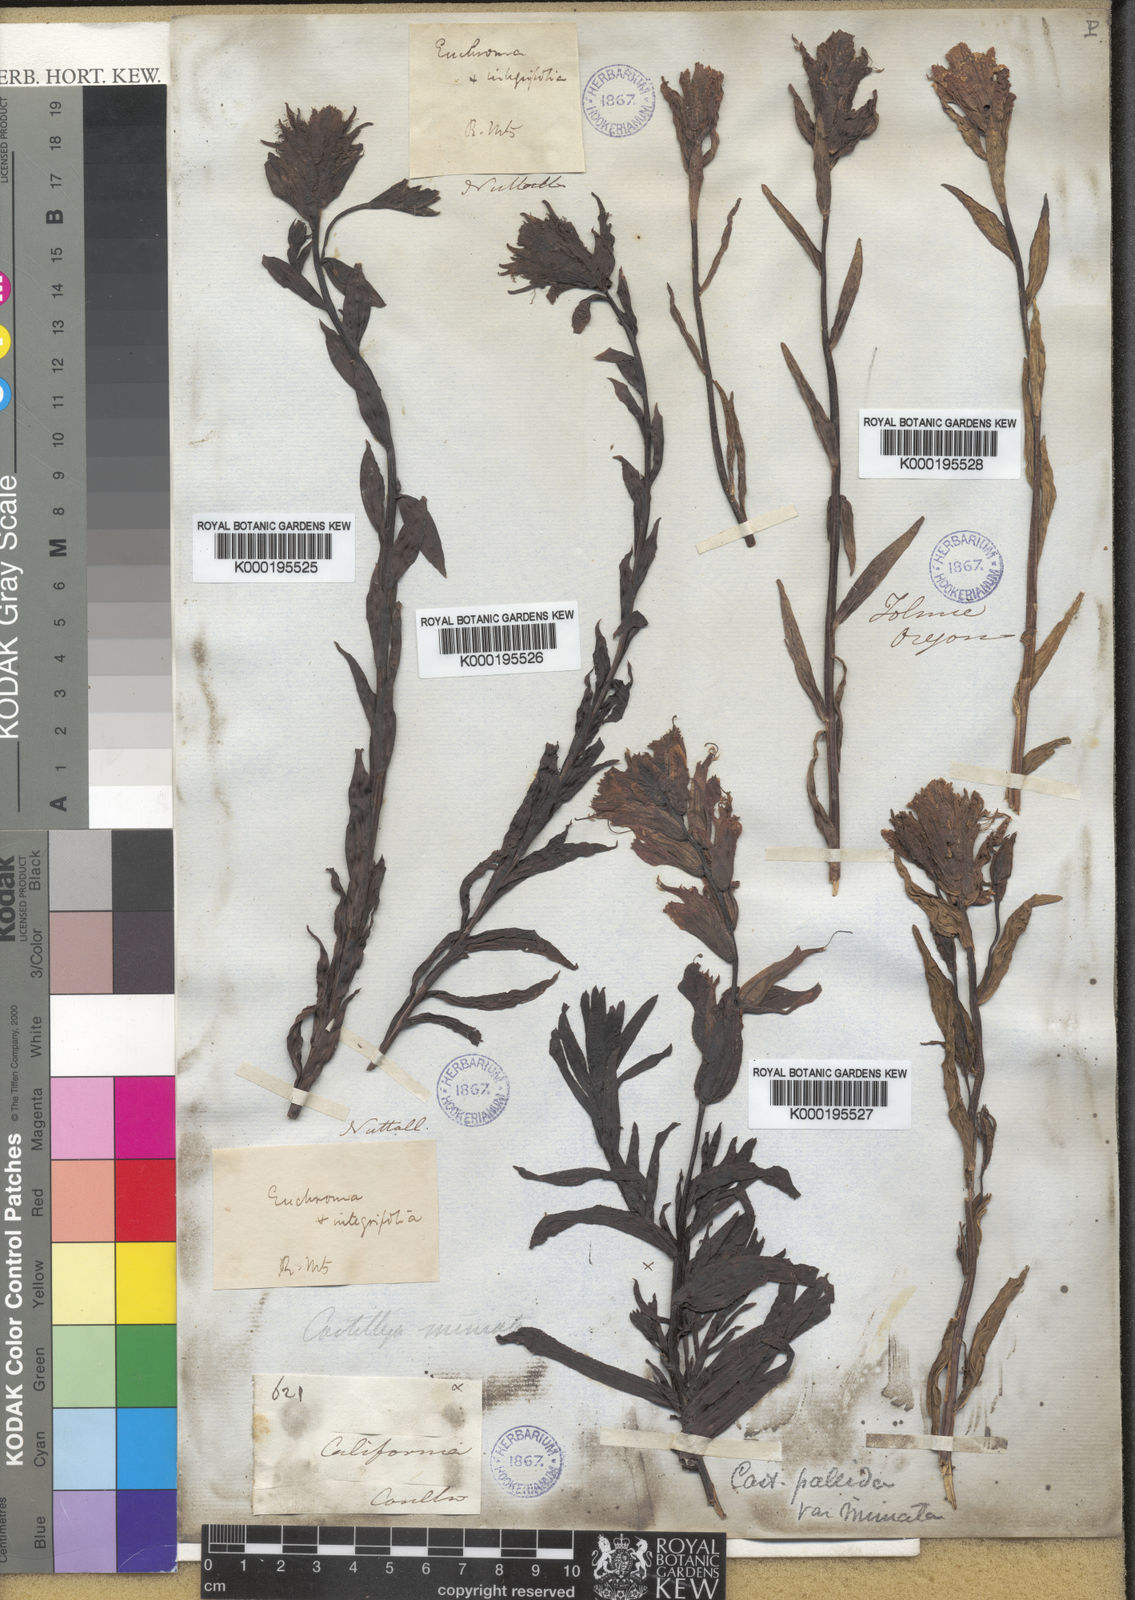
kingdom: Plantae
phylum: Tracheophyta
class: Magnoliopsida
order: Lamiales
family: Orobanchaceae
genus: Castilleja
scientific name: Castilleja
